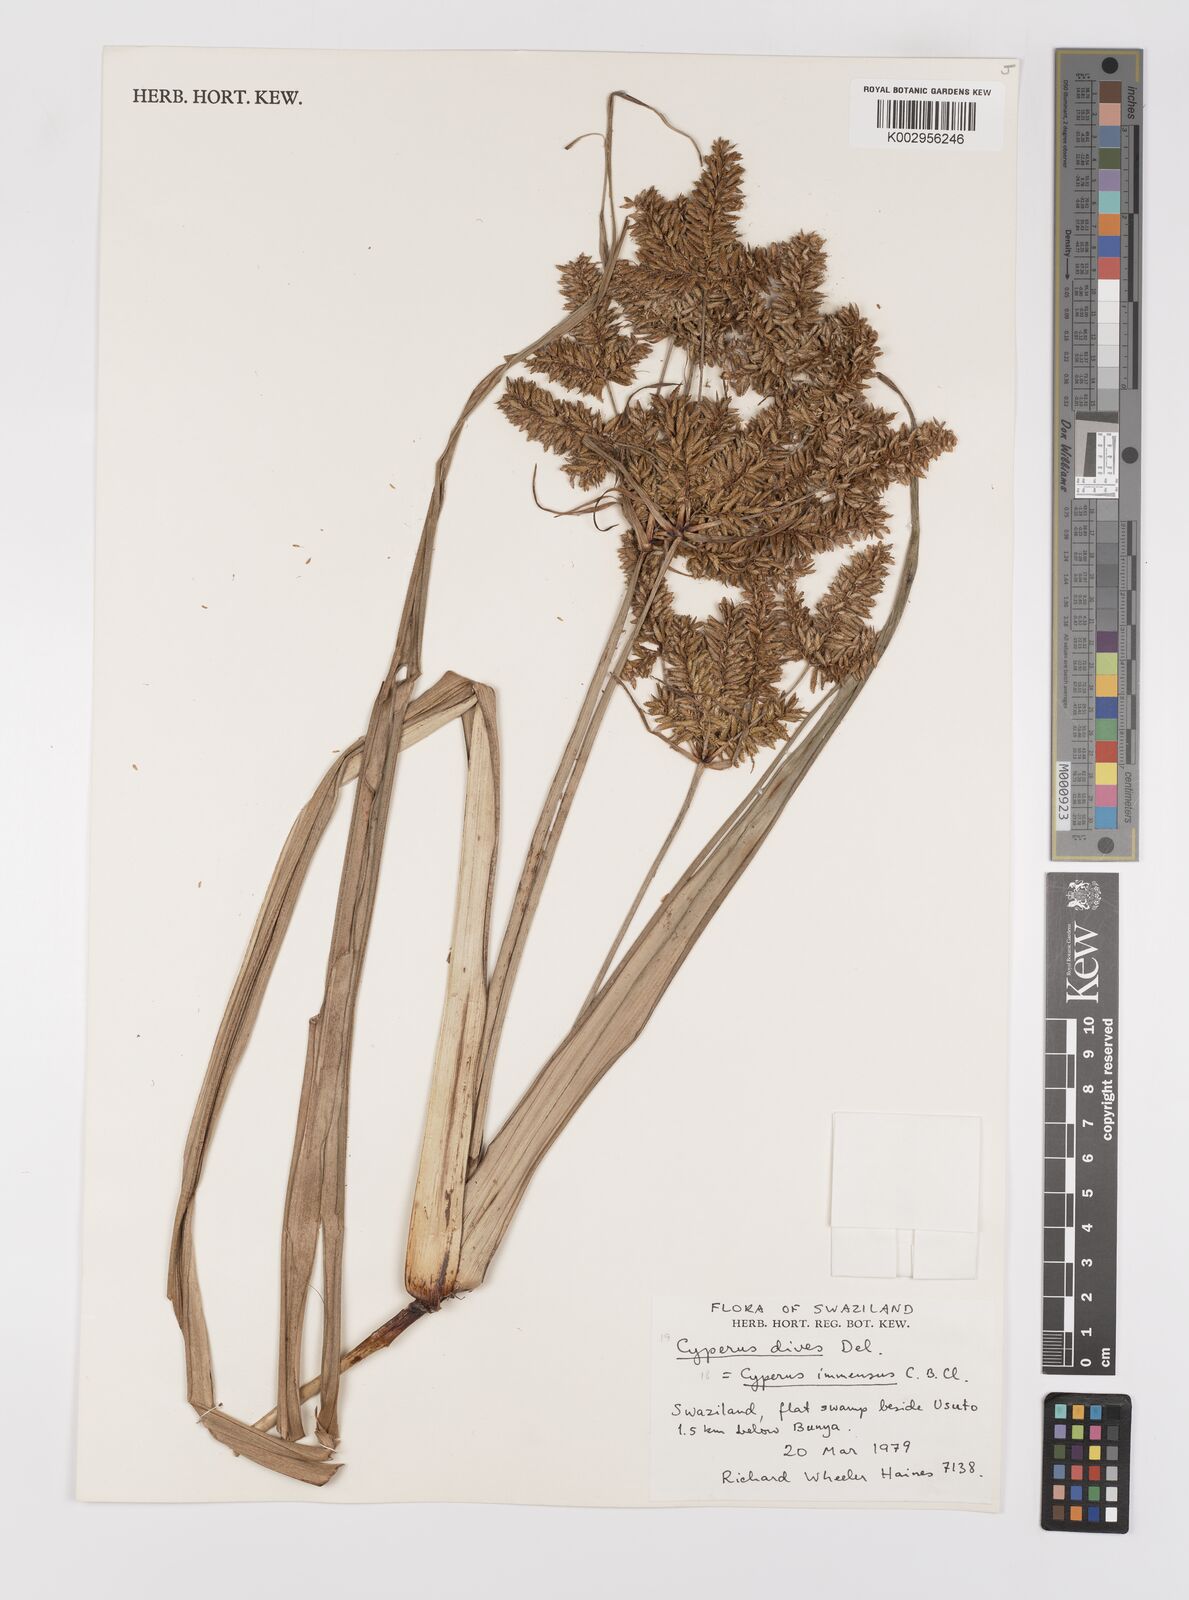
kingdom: Plantae
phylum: Tracheophyta
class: Liliopsida
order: Poales
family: Cyperaceae
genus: Cyperus
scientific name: Cyperus dives
